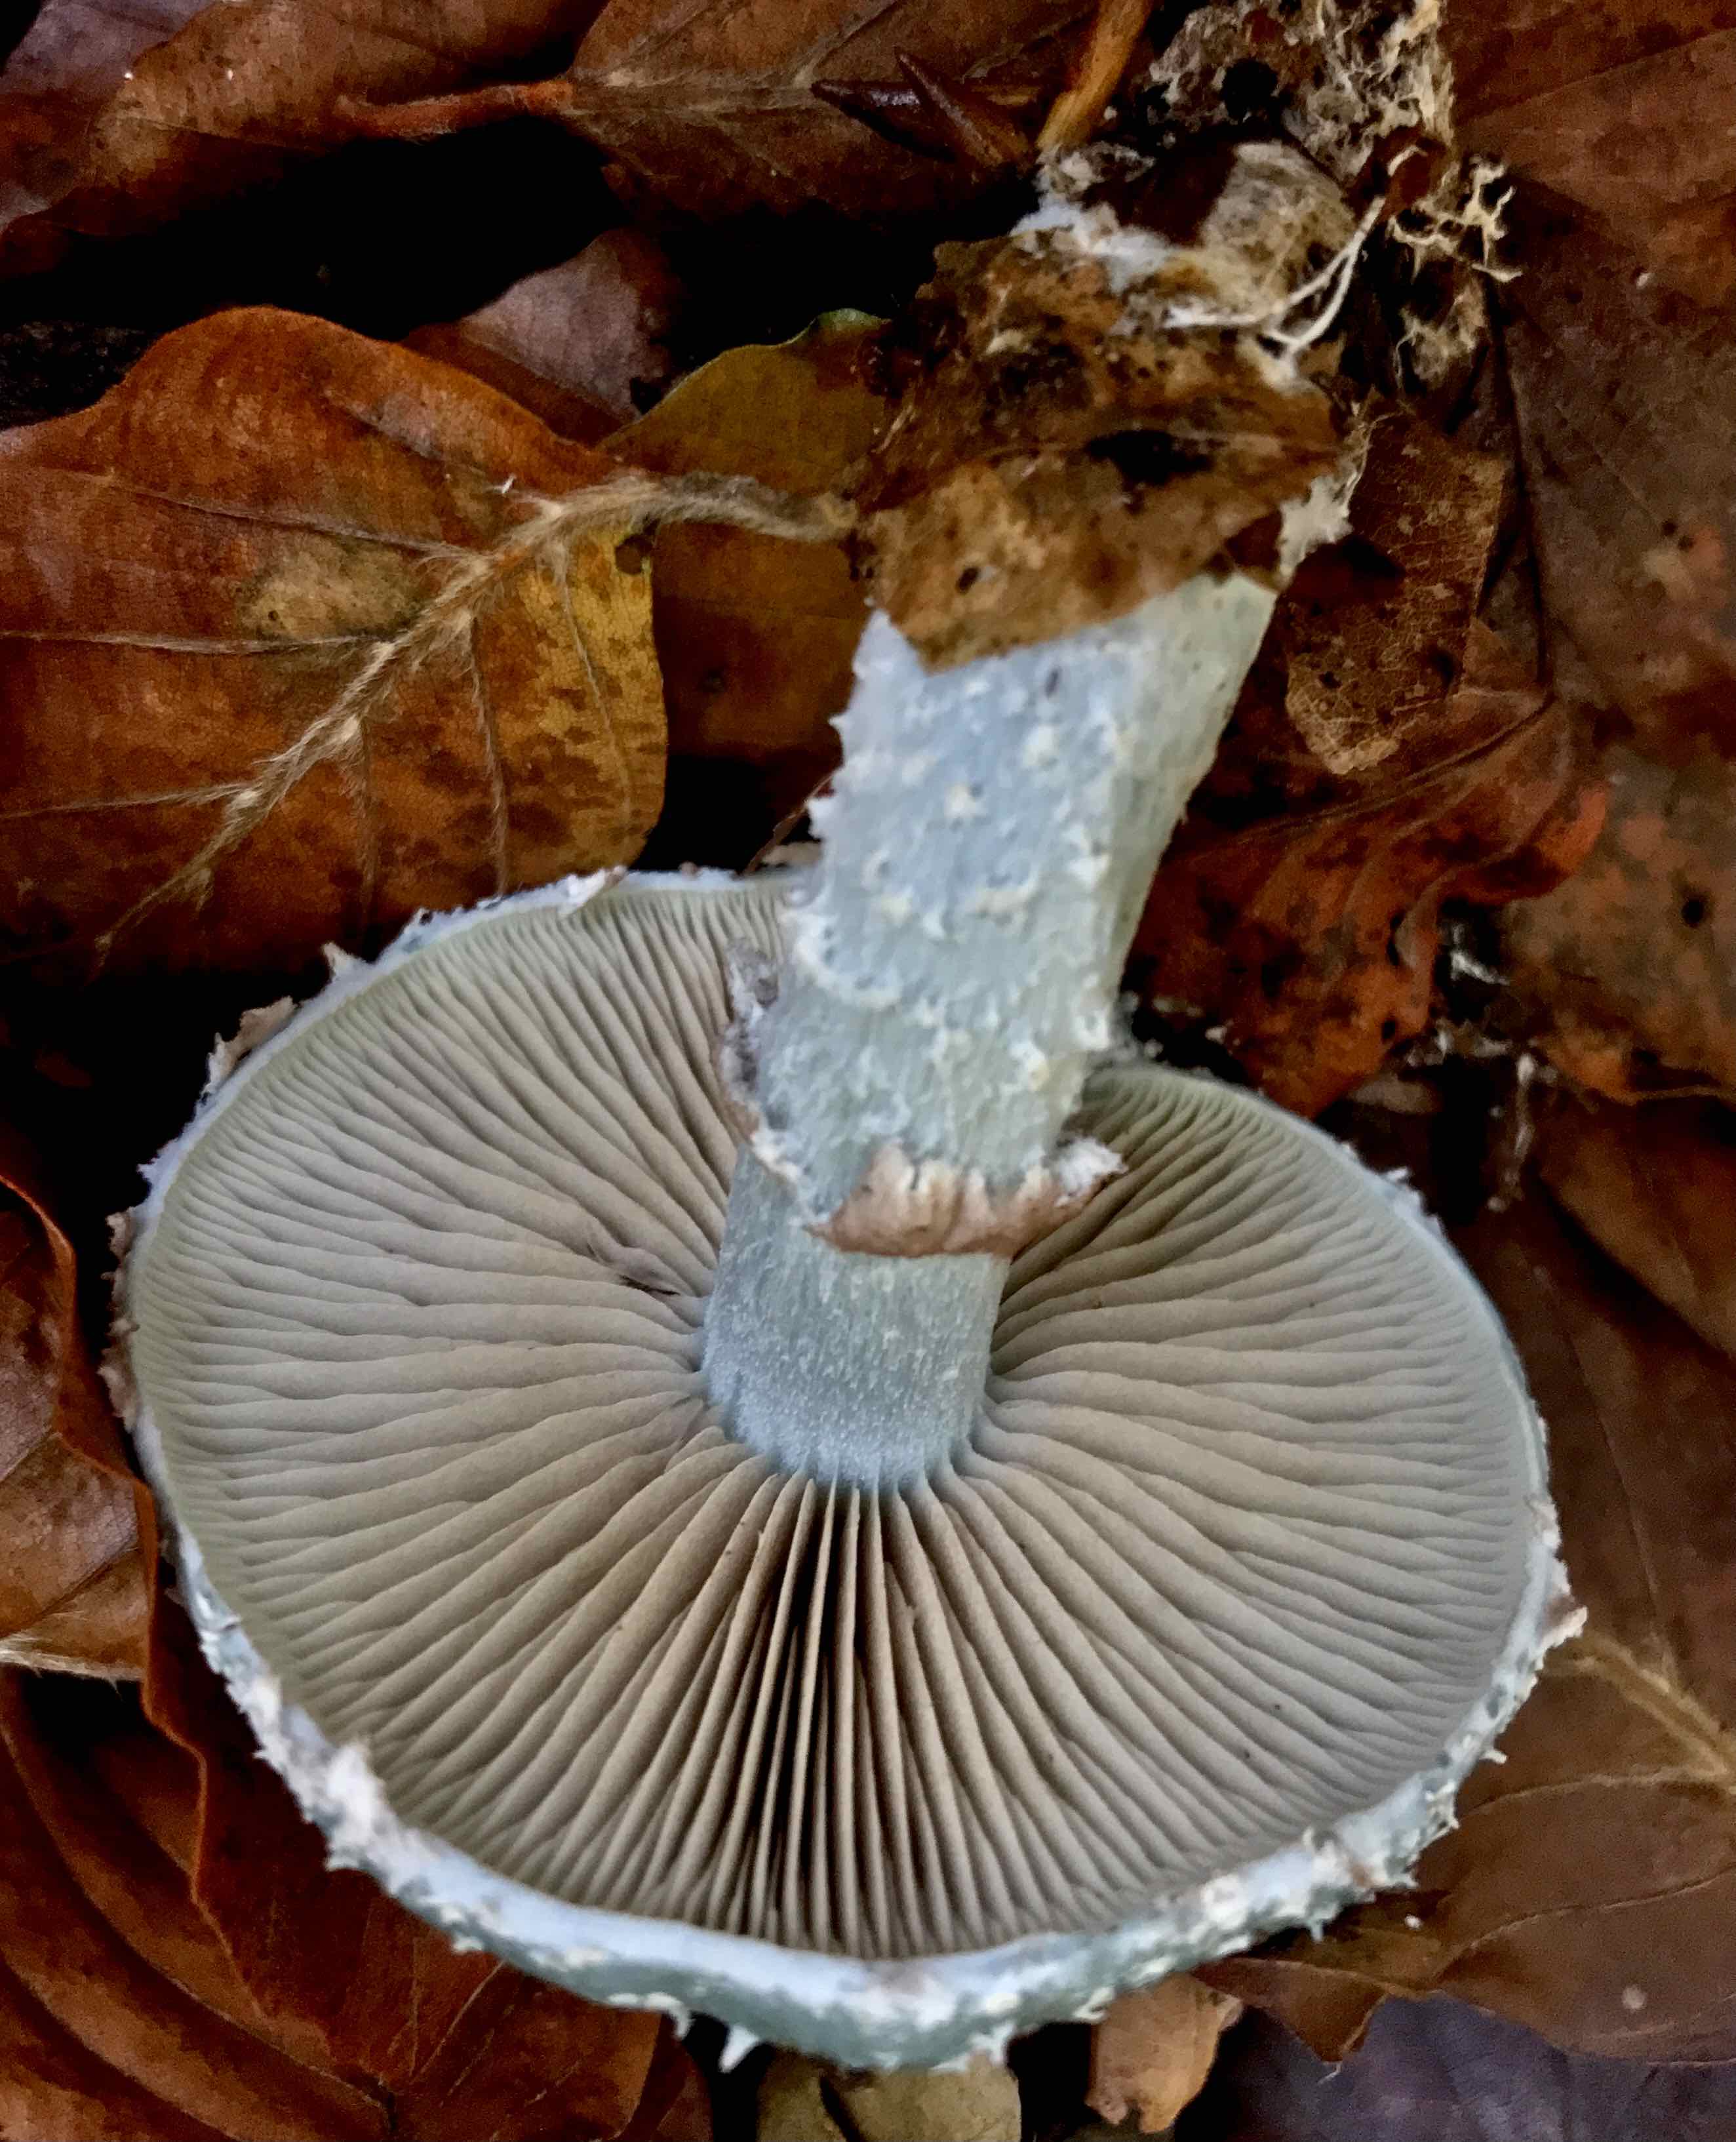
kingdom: Fungi
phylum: Basidiomycota
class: Agaricomycetes
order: Agaricales
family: Strophariaceae
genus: Stropharia
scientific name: Stropharia aeruginosa
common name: spanskgrøn bredblad
